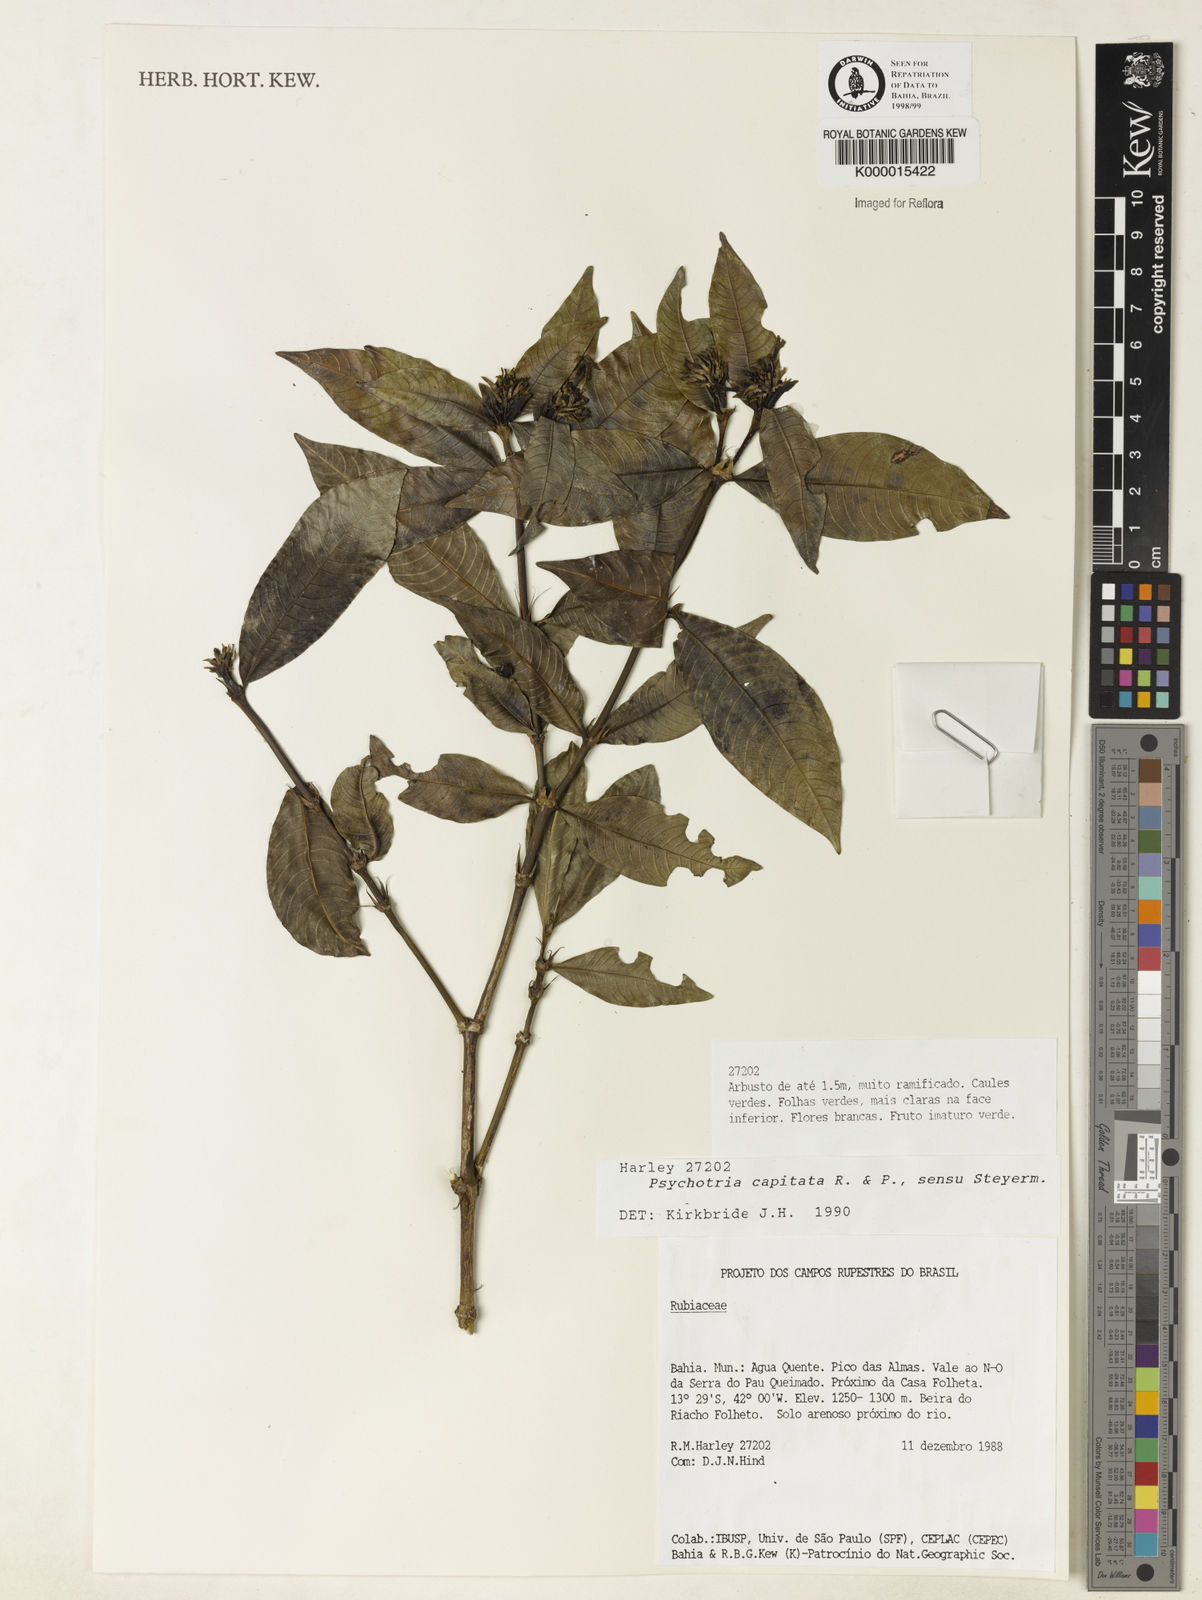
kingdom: Plantae
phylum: Tracheophyta
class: Magnoliopsida
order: Gentianales
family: Rubiaceae
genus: Psychotria
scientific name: Psychotria
